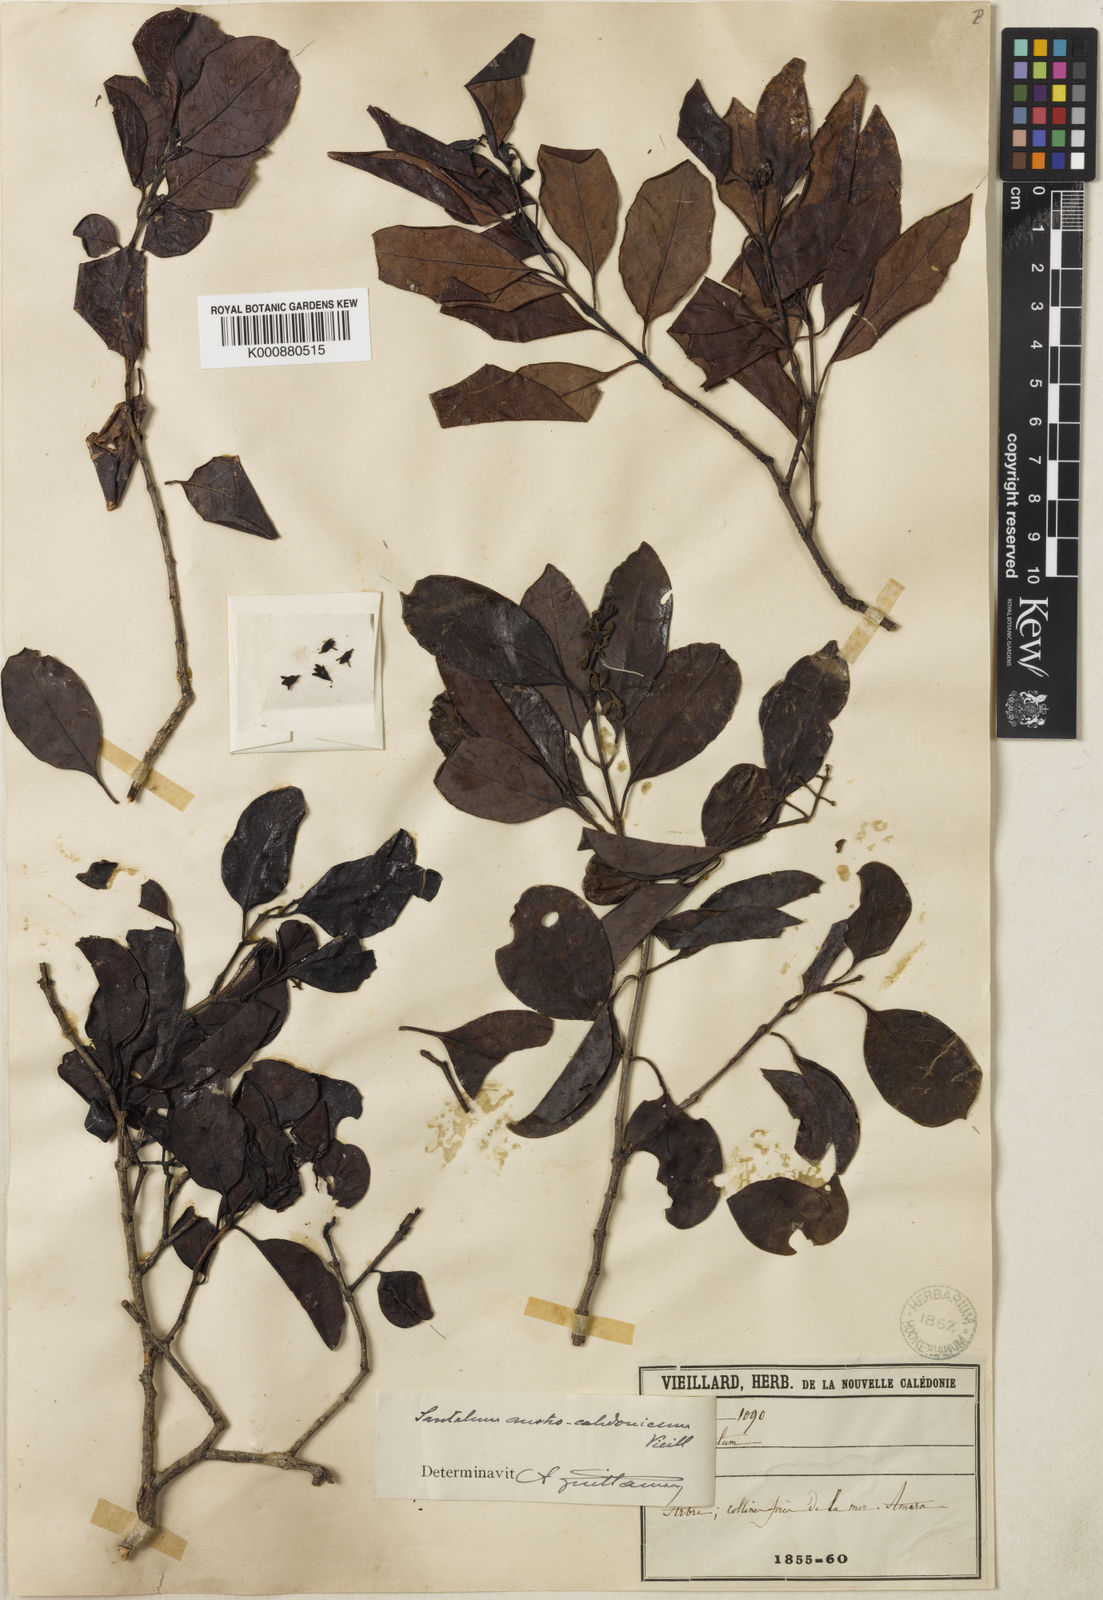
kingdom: Plantae
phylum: Tracheophyta
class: Magnoliopsida
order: Santalales
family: Santalaceae
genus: Santalum
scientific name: Santalum austrocaledonicum
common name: Coral sea sandalwood
